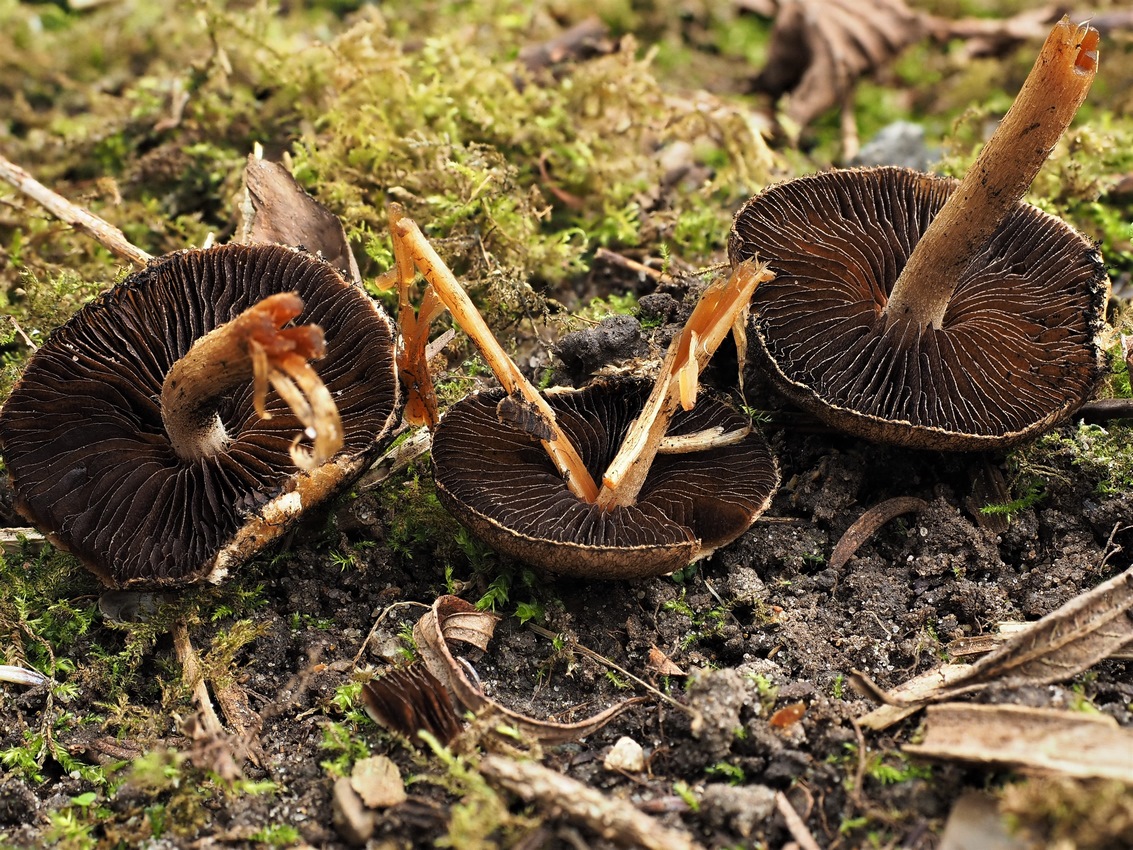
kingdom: Fungi
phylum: Basidiomycota
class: Agaricomycetes
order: Agaricales
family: Psathyrellaceae
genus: Lacrymaria
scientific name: Lacrymaria lacrymabunda
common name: grædende mørkhat
